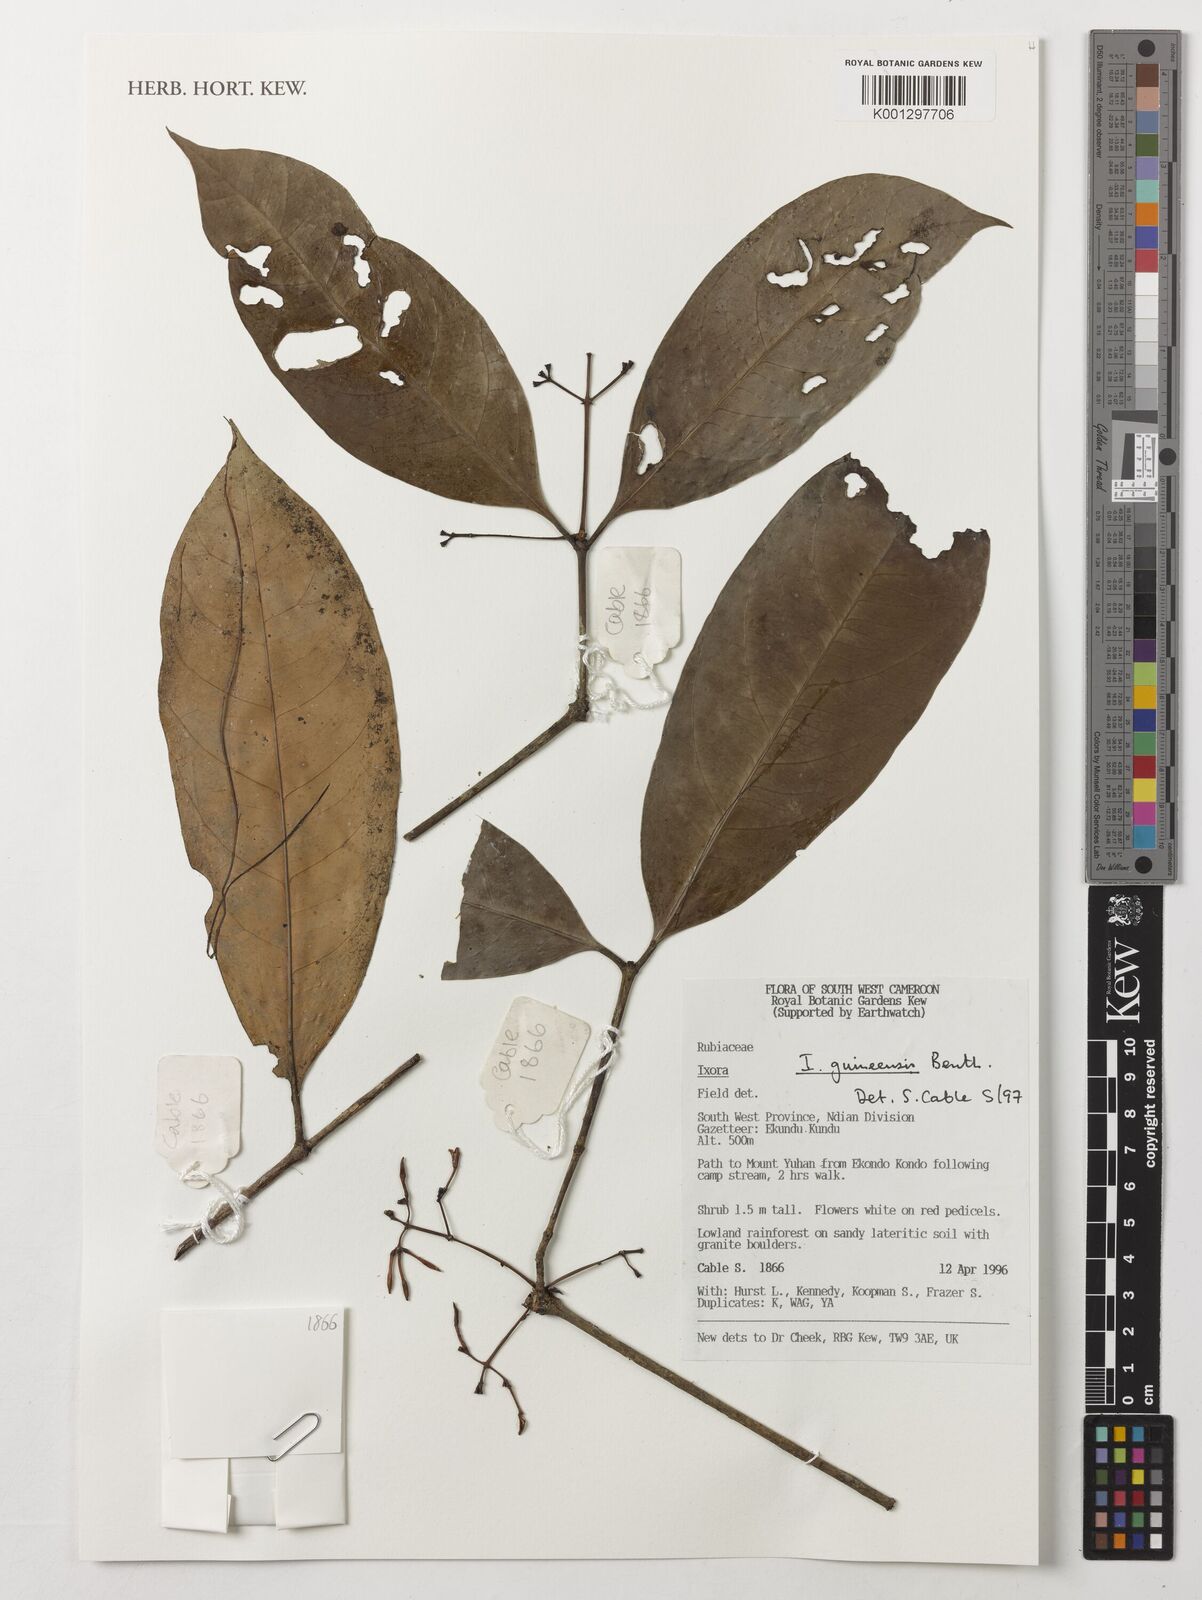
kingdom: Plantae
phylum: Tracheophyta
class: Magnoliopsida
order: Gentianales
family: Rubiaceae
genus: Ixora
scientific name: Ixora guineensis
